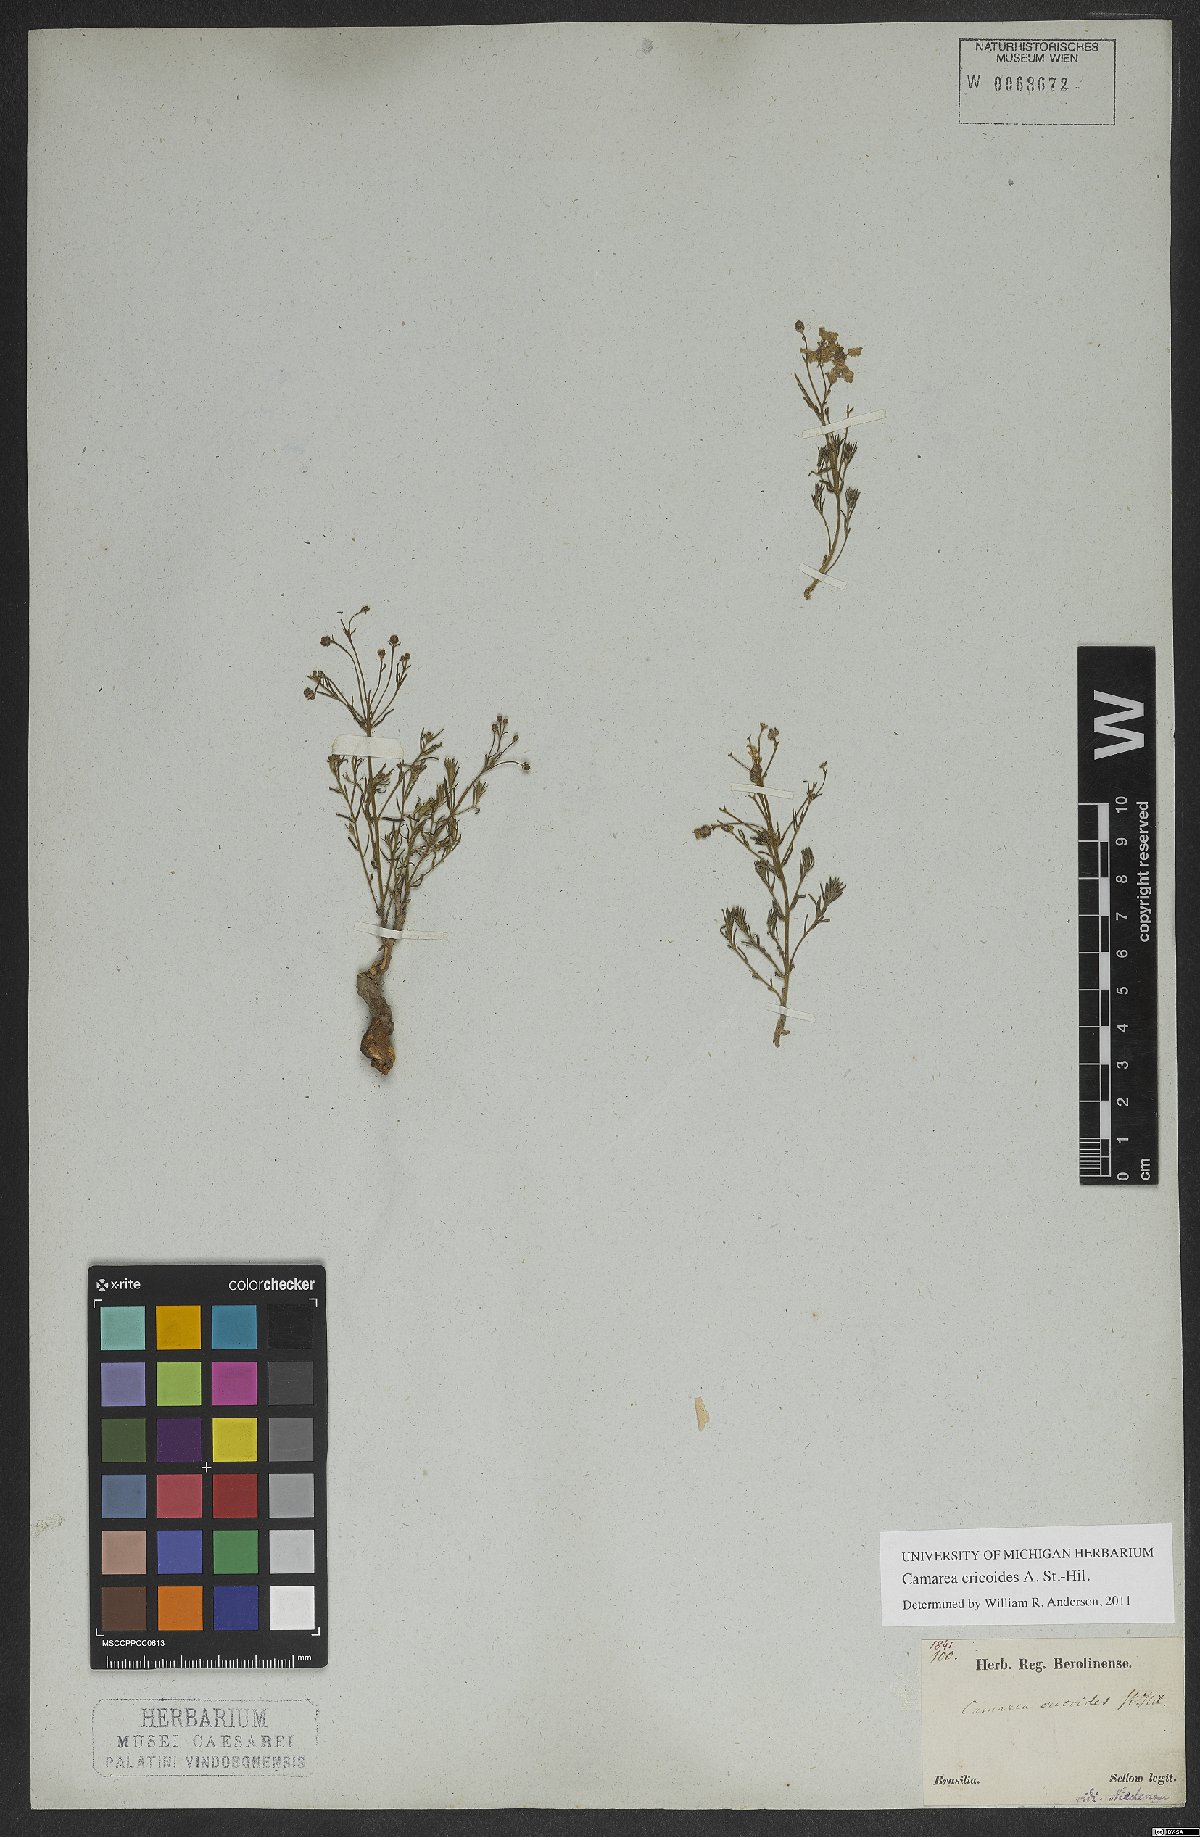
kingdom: Plantae
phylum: Tracheophyta
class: Magnoliopsida
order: Malpighiales
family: Malpighiaceae
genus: Camarea
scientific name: Camarea ericoides
